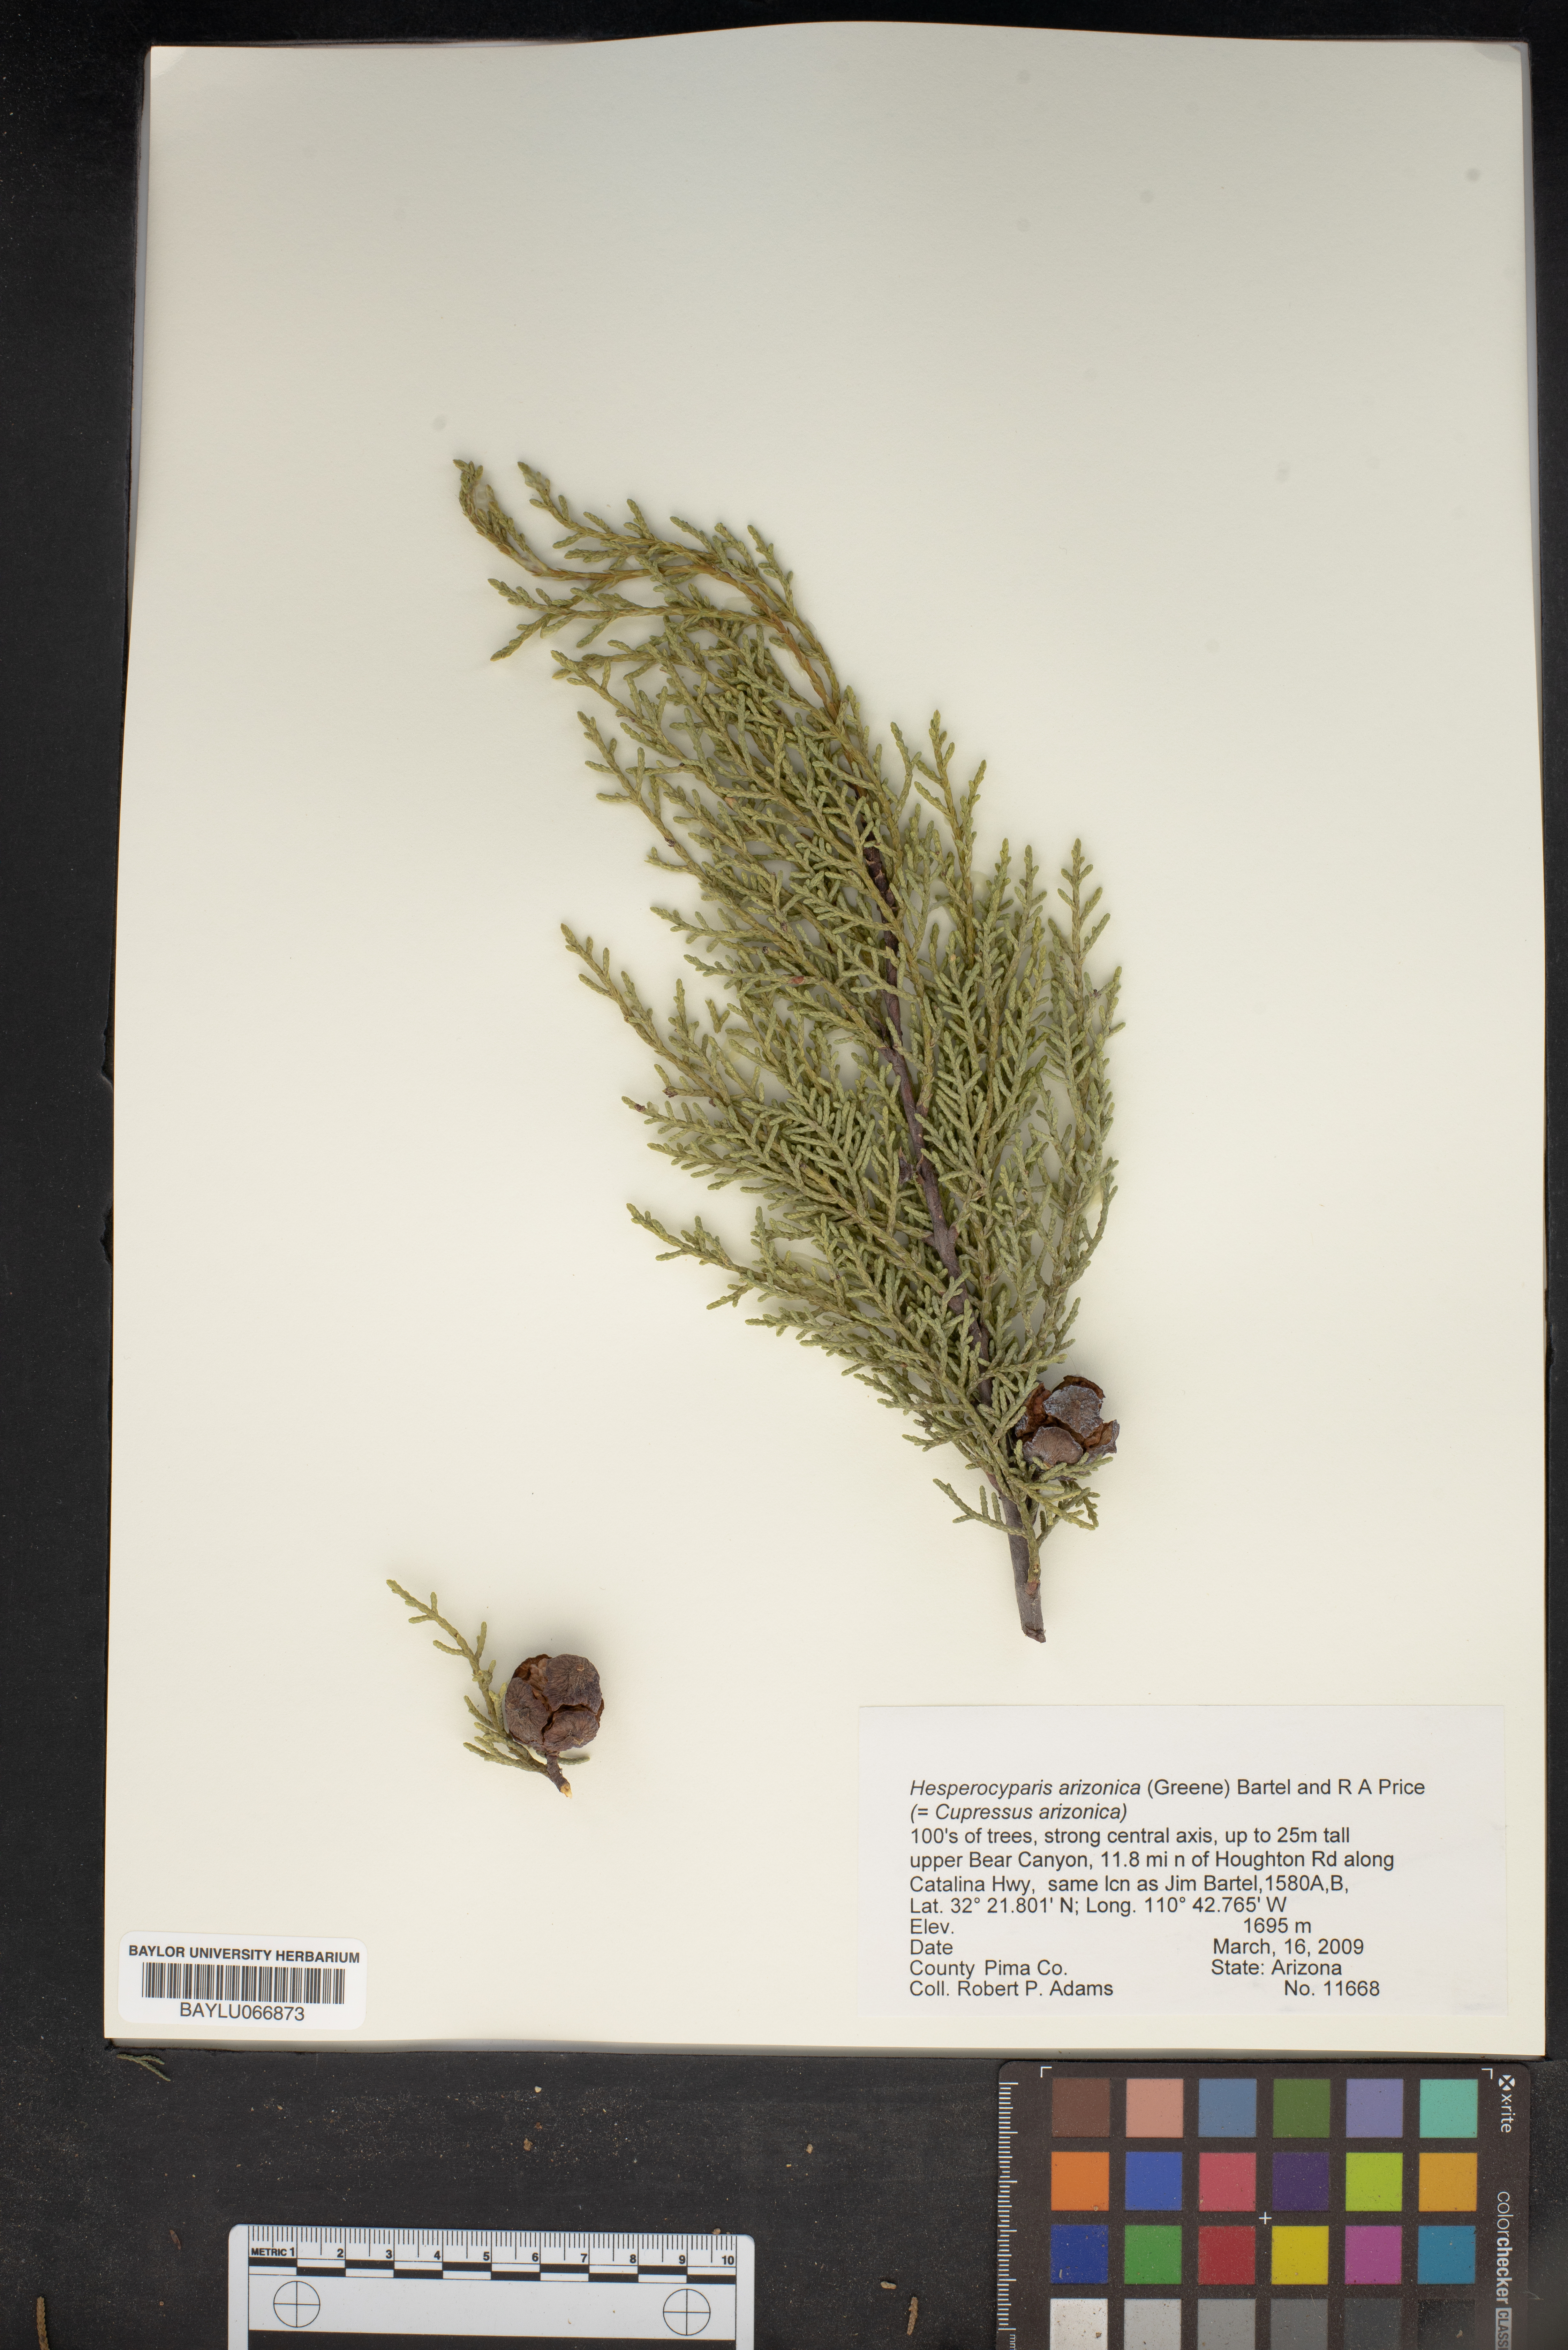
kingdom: Plantae
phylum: Tracheophyta
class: Pinopsida
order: Pinales
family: Cupressaceae
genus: Cupressus
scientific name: Cupressus arizonica
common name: Arizona cypress
